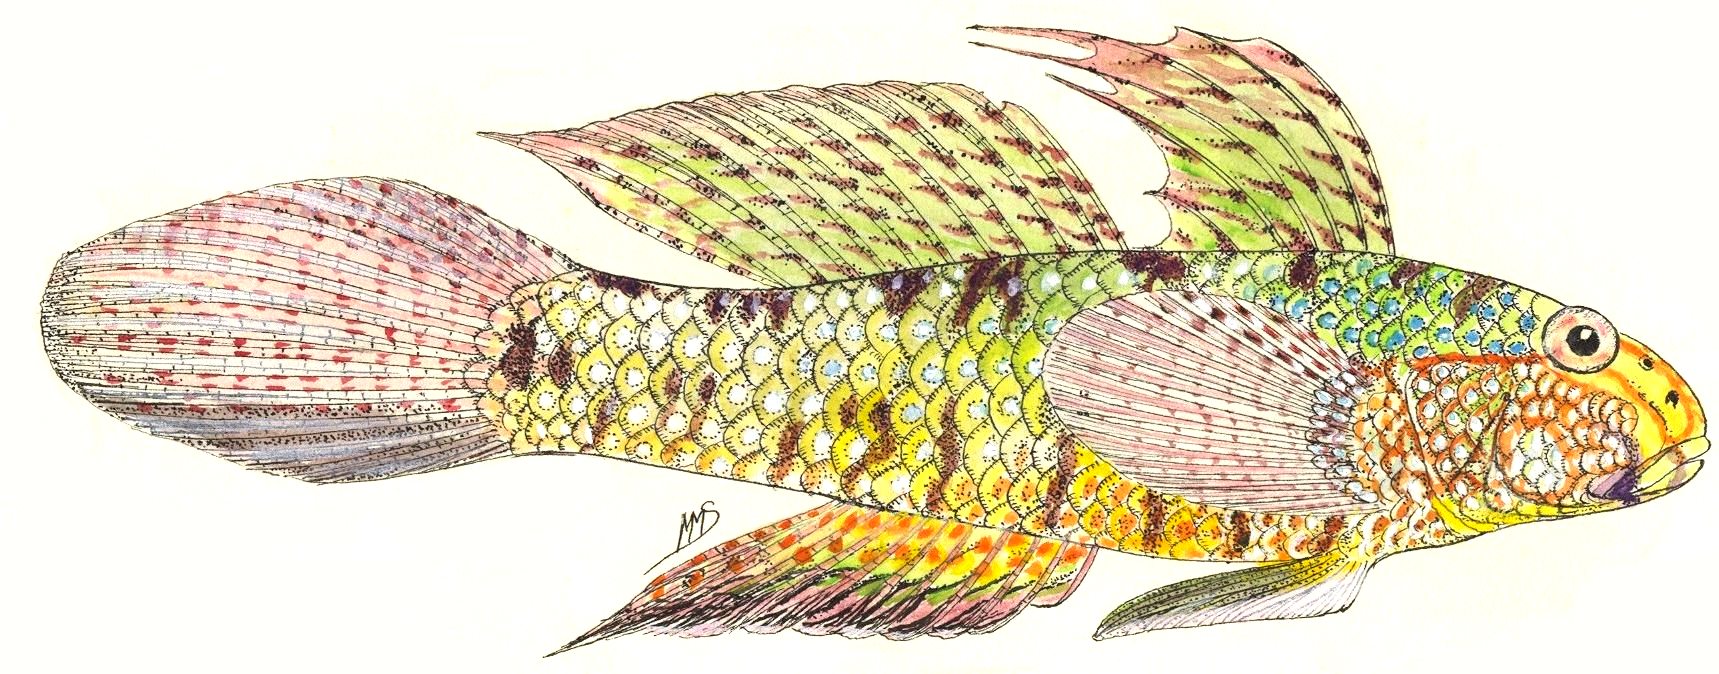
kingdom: Animalia
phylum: Chordata
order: Perciformes
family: Gobiidae
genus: Exyrias
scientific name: Exyrias belissimus
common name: Mud reef-goby
